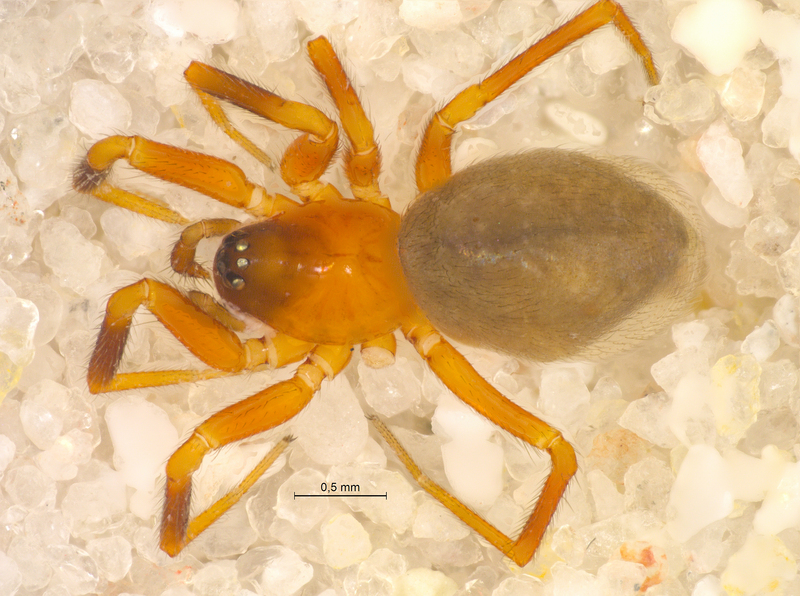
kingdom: Animalia
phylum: Arthropoda
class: Arachnida
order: Araneae
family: Linyphiidae
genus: Walckenaeria
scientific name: Walckenaeria atrotibialis
